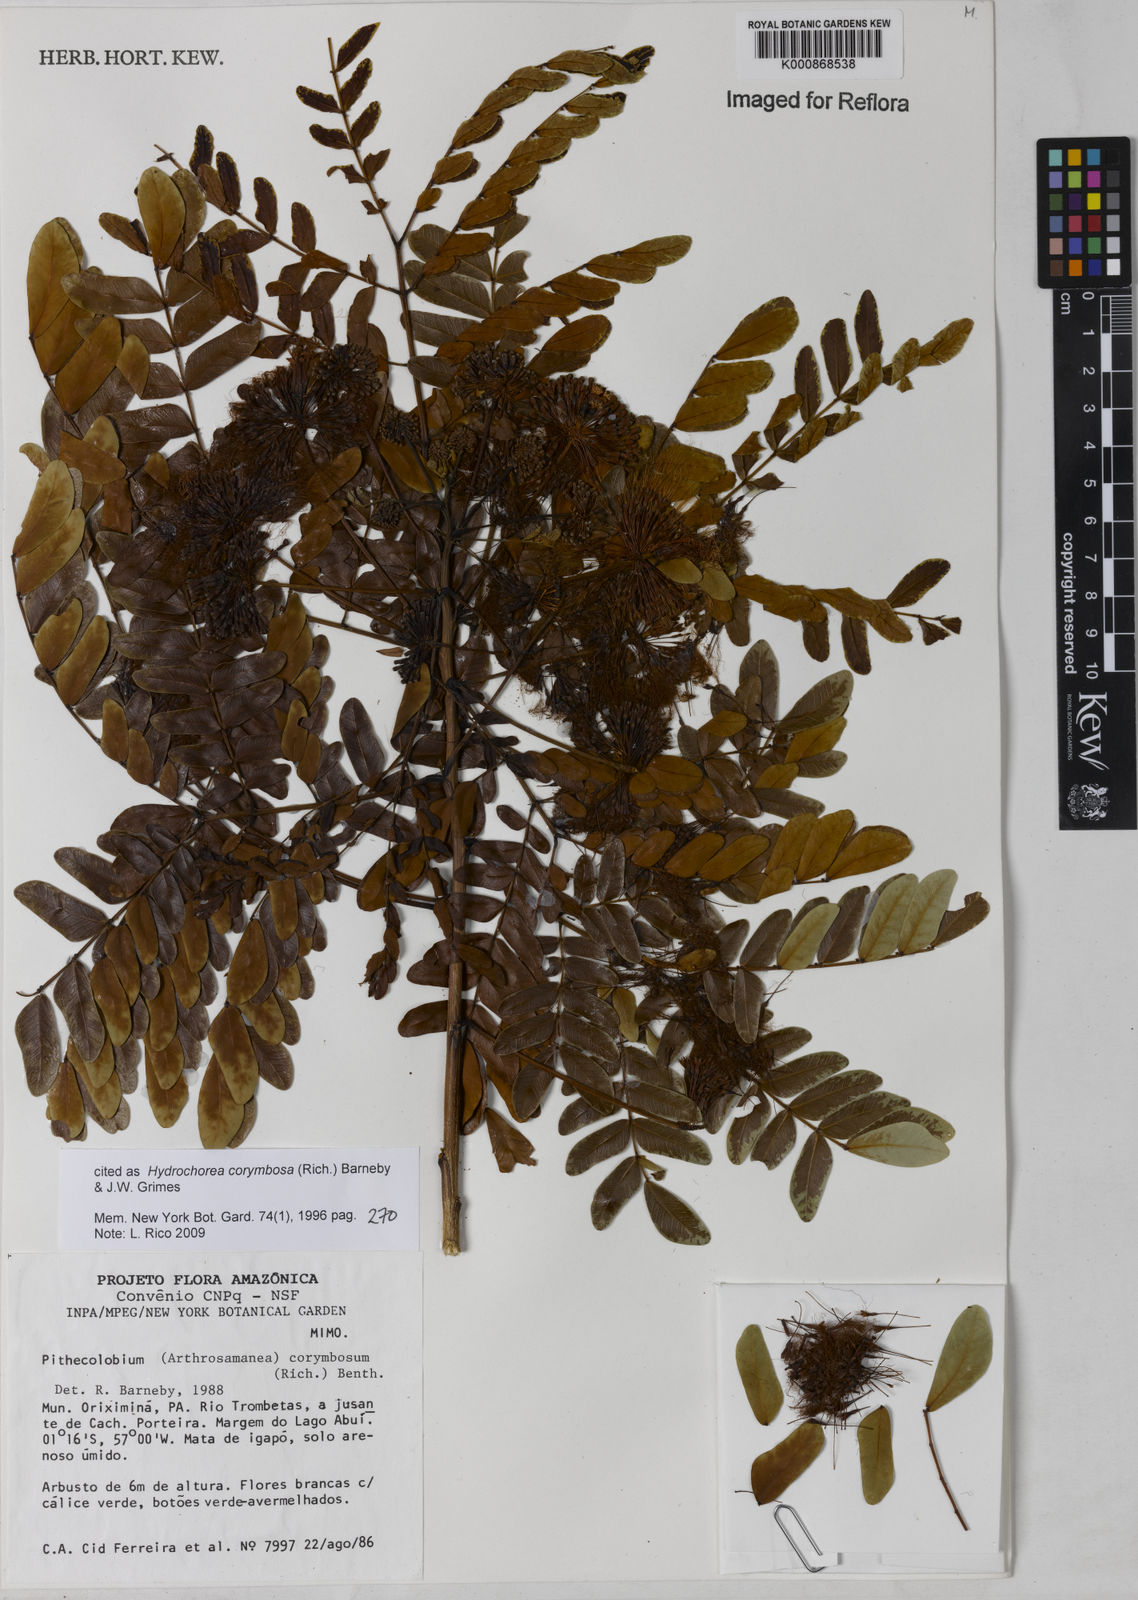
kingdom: Plantae
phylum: Tracheophyta
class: Magnoliopsida
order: Fabales
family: Fabaceae
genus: Hydrochorea
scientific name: Hydrochorea corymbosa
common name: Swamp manariballi
